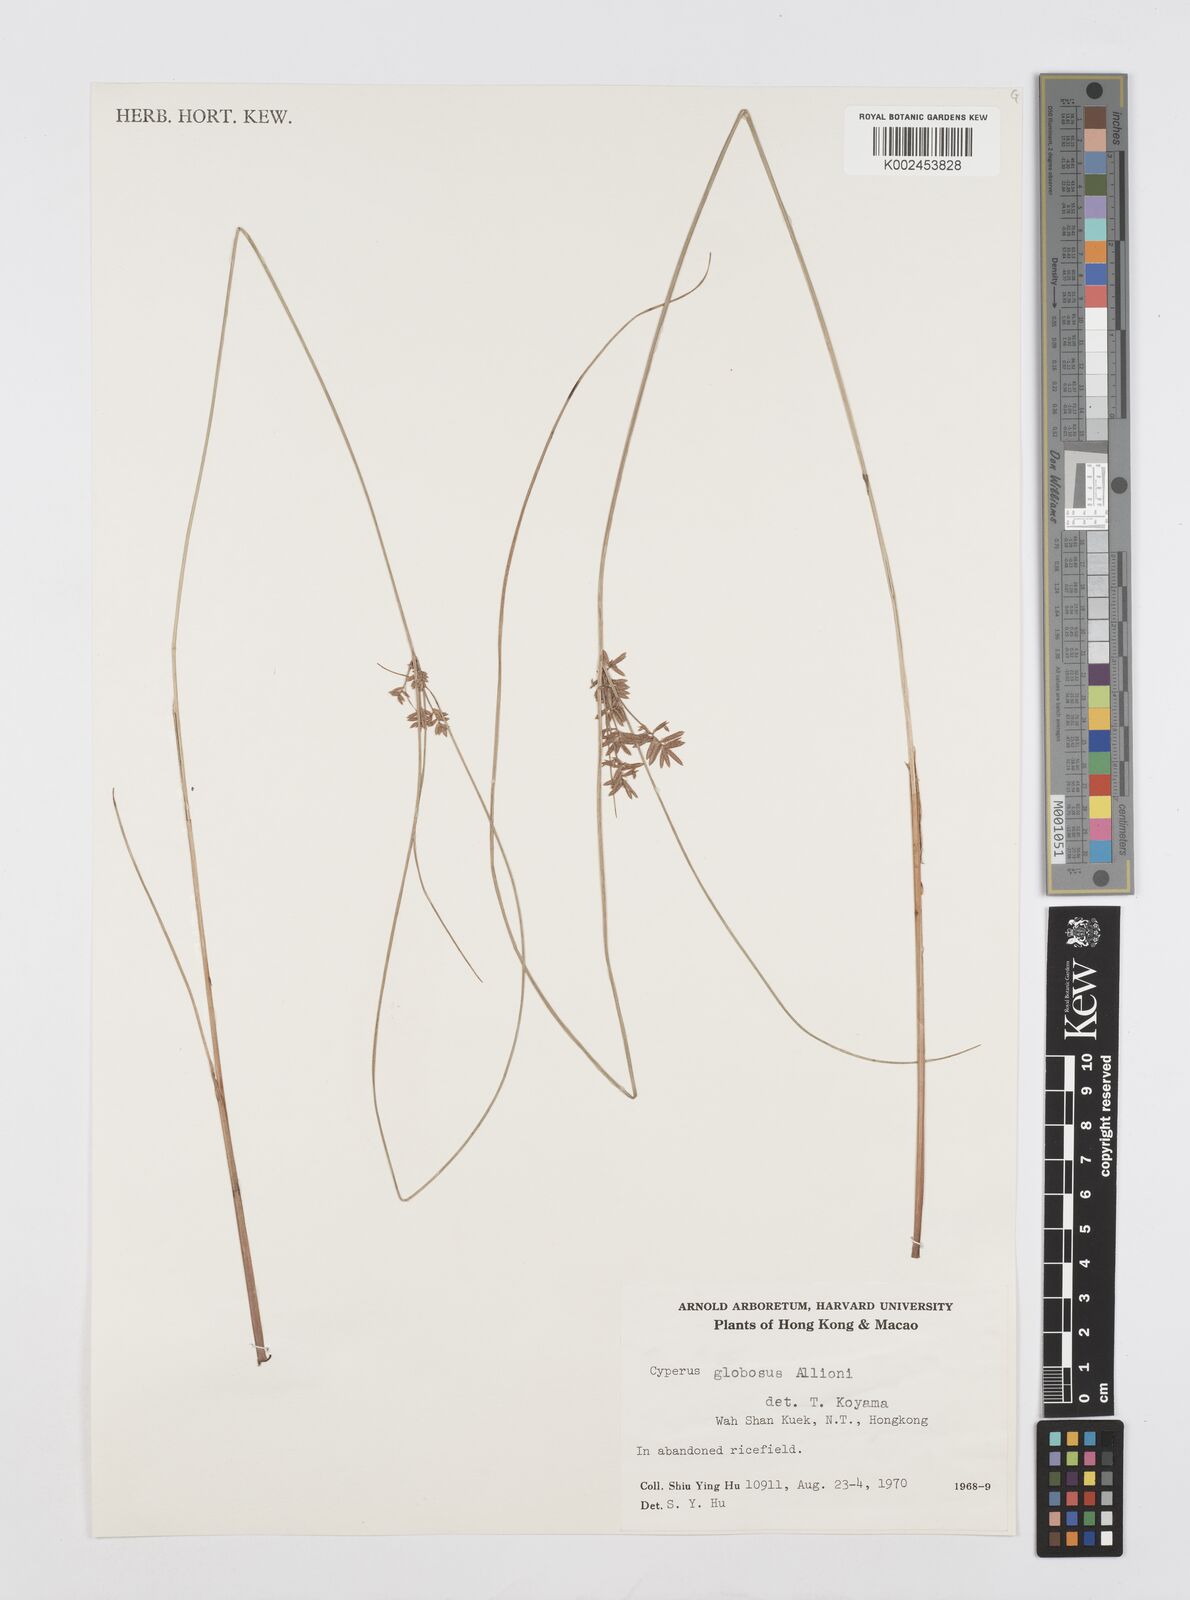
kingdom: Plantae
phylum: Tracheophyta
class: Liliopsida
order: Poales
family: Cyperaceae
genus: Cyperus
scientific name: Cyperus flavidus
